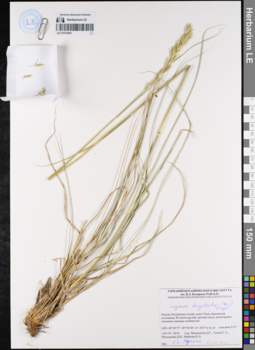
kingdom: Plantae
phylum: Tracheophyta
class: Liliopsida
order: Poales
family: Poaceae
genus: Leymus
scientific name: Leymus secalinus
